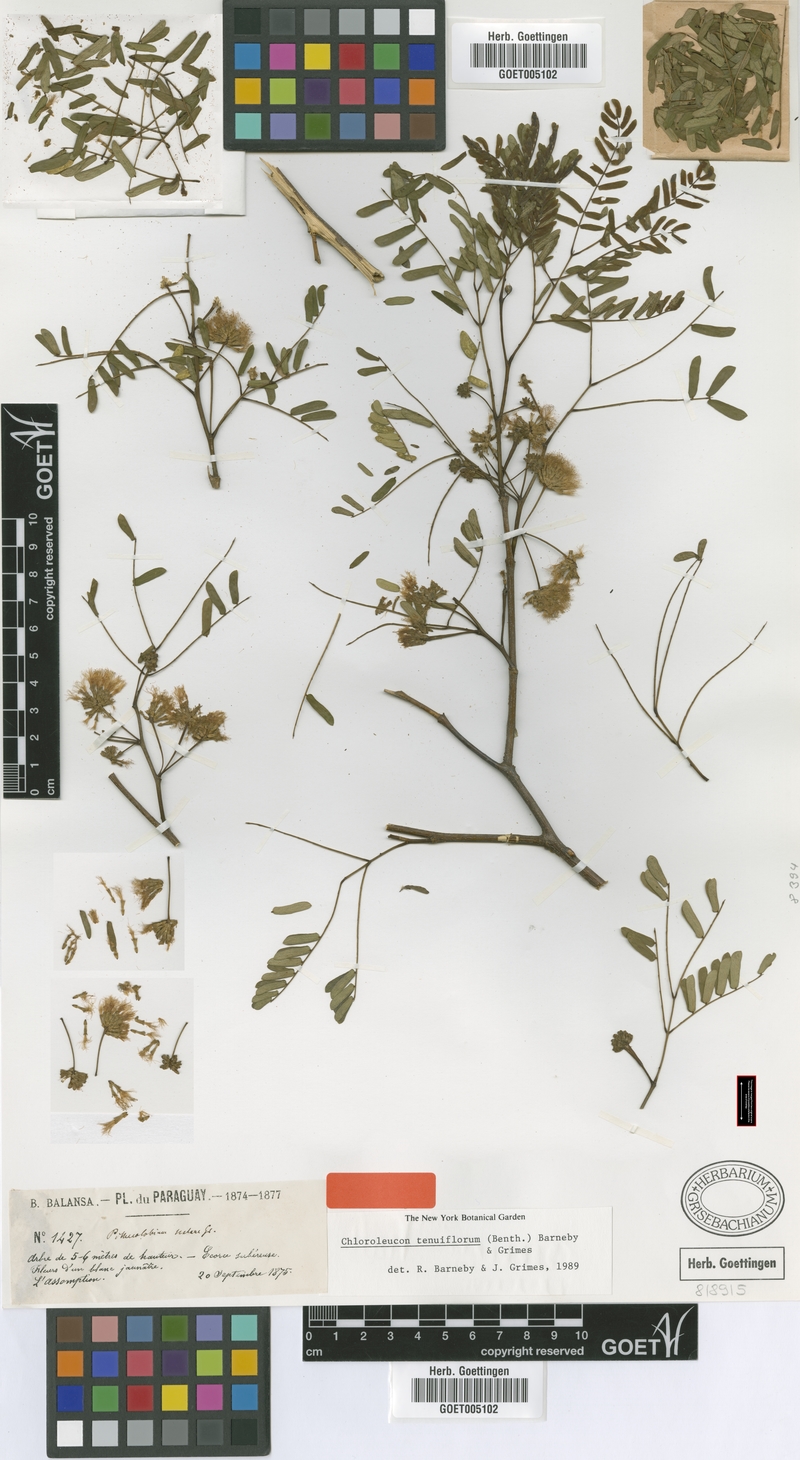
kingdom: Plantae
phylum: Tracheophyta
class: Magnoliopsida
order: Fabales
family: Fabaceae
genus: Chloroleucon
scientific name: Chloroleucon tenuiflorum
